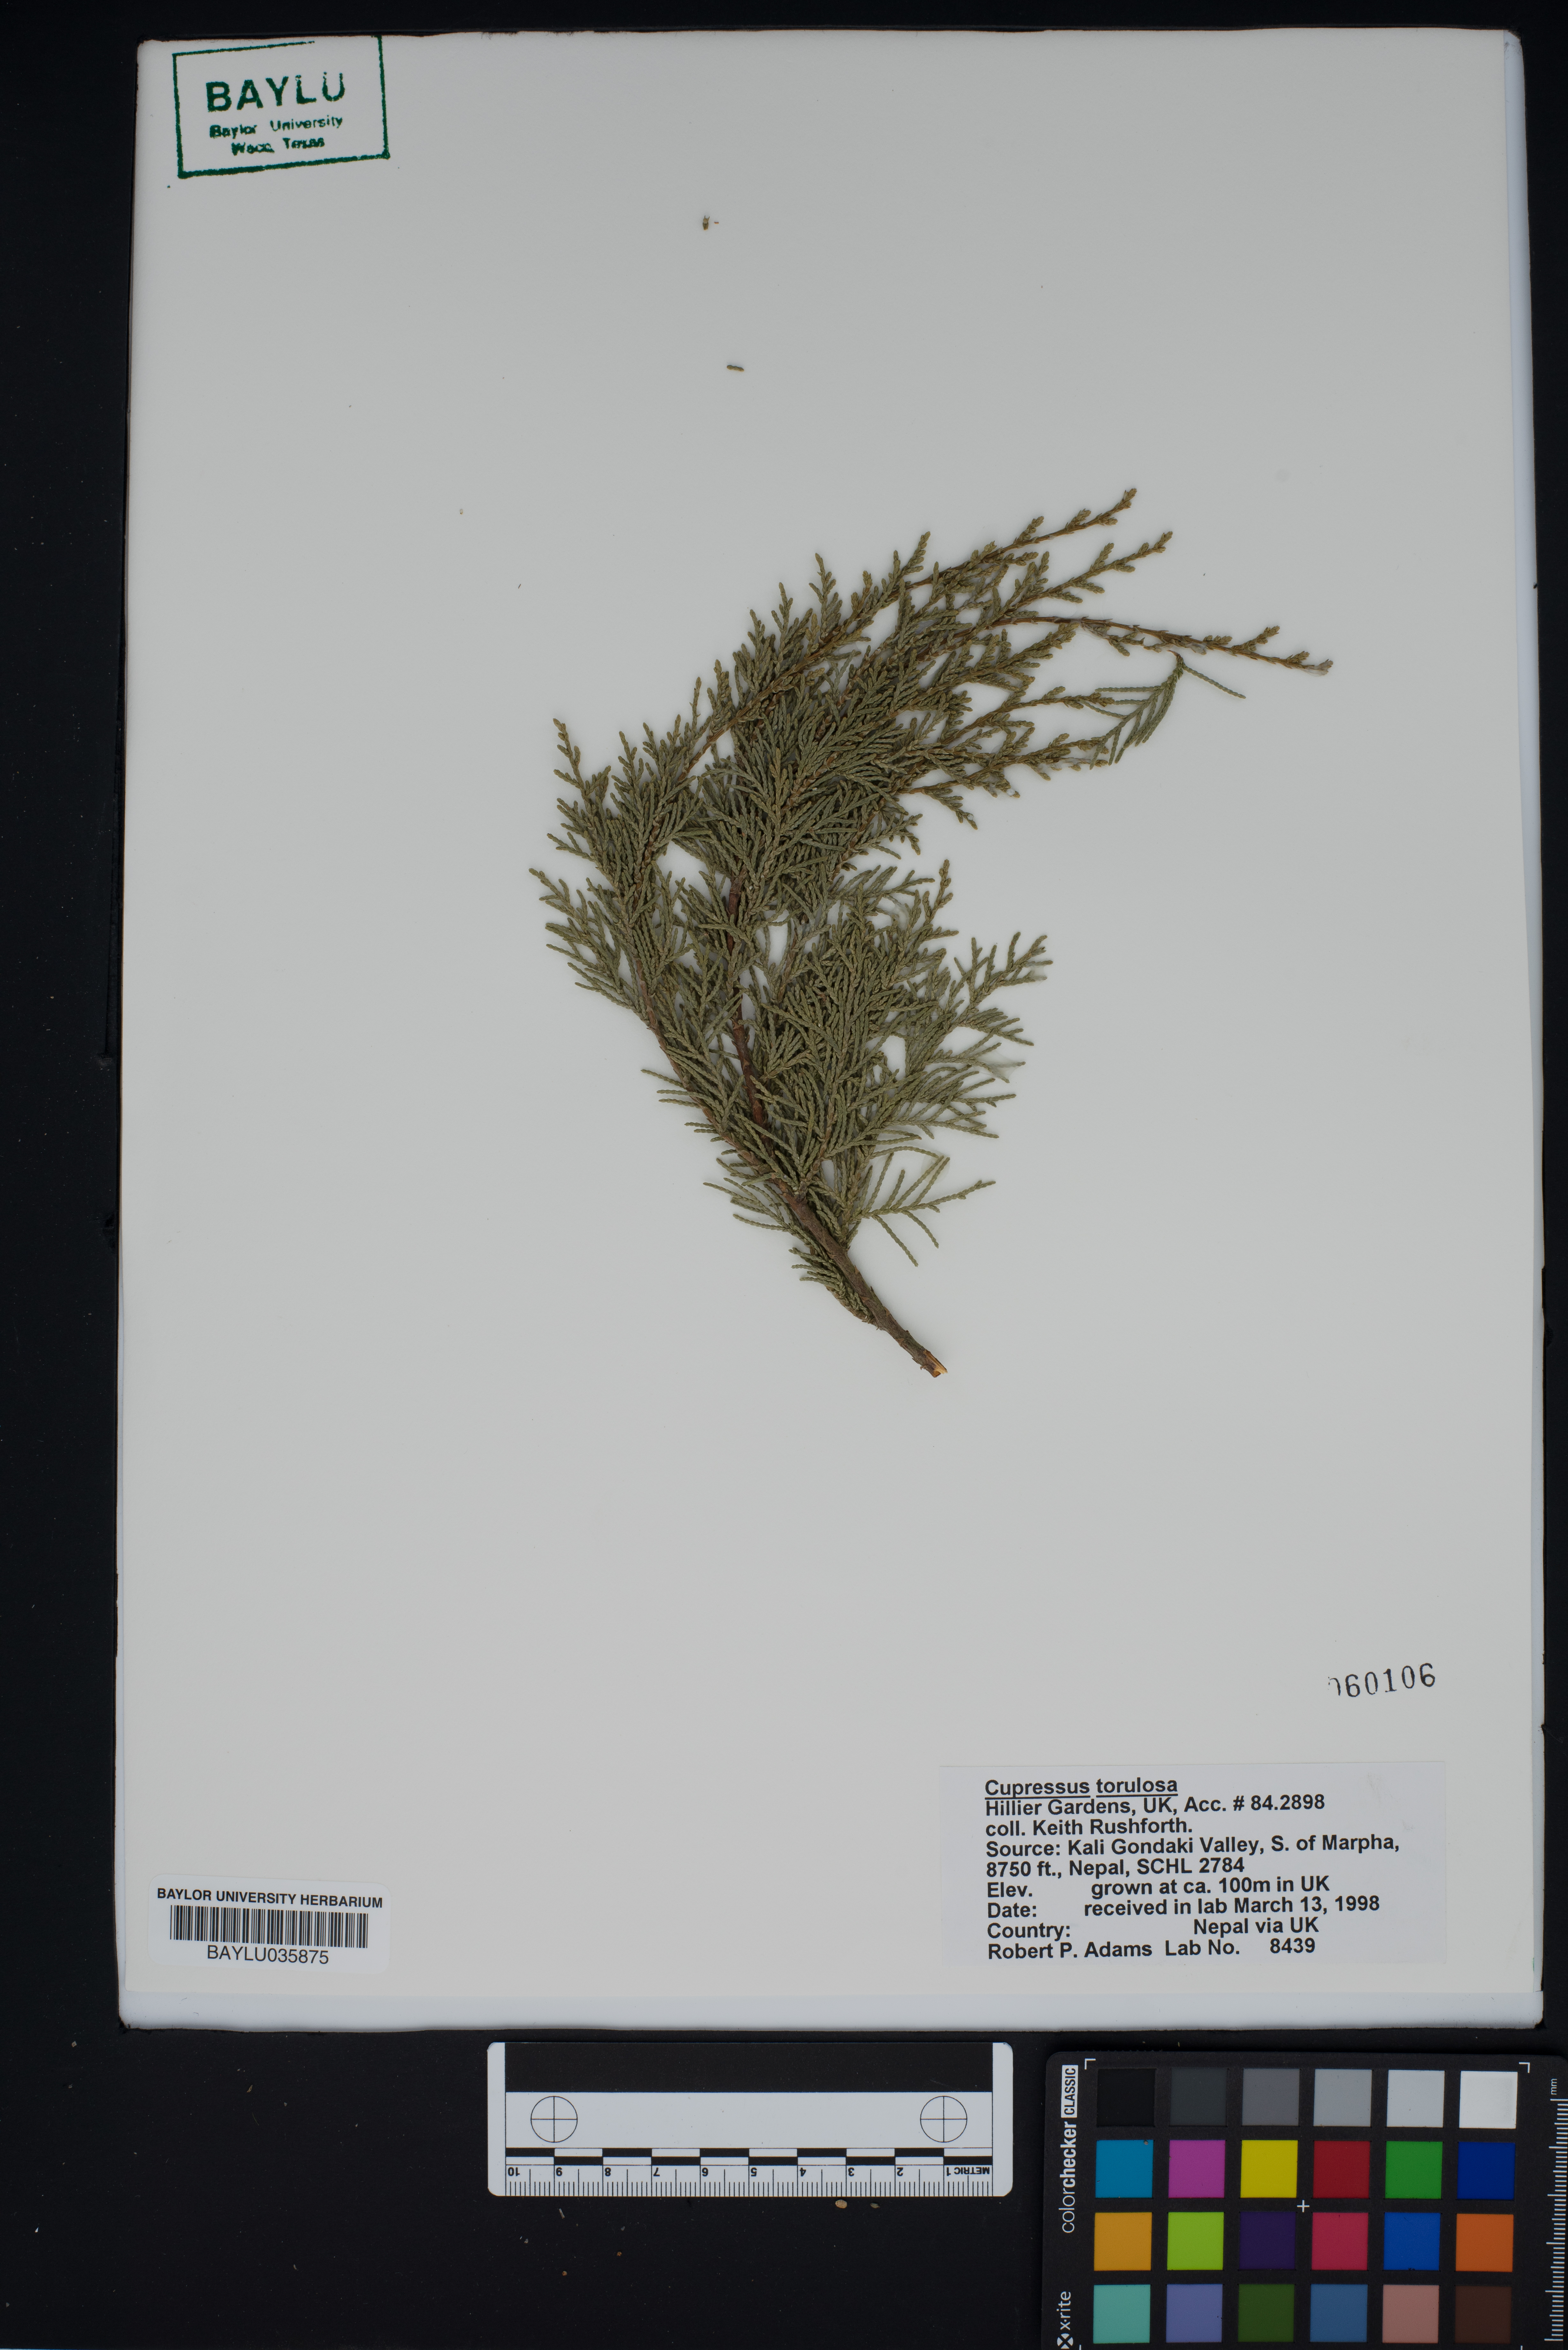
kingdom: Plantae
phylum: Tracheophyta
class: Pinopsida
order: Pinales
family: Cupressaceae
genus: Cupressus
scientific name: Cupressus torulosa
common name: Himalayan cypress
